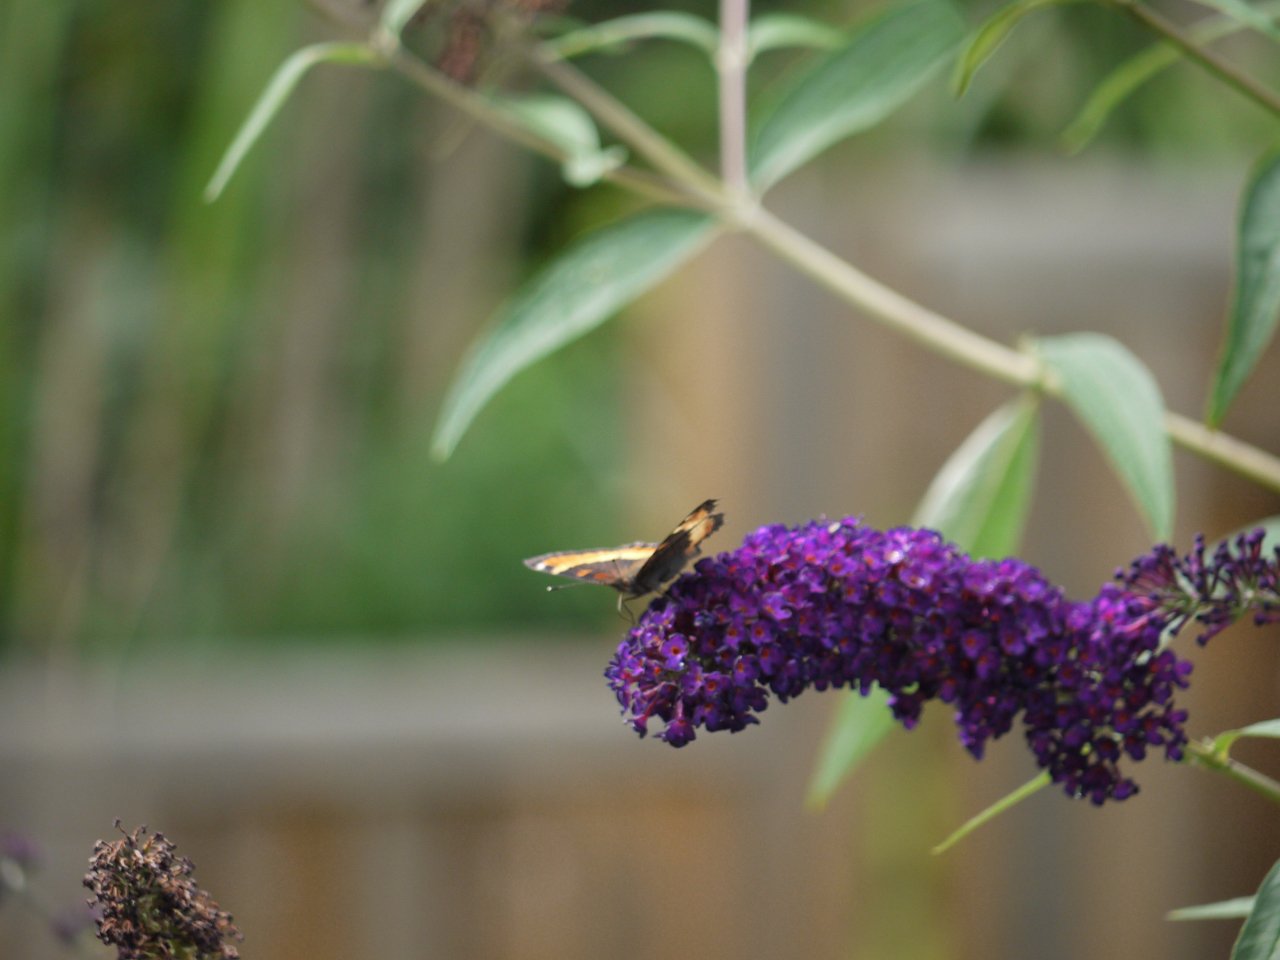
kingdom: Animalia
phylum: Arthropoda
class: Insecta
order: Lepidoptera
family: Nymphalidae
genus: Aglais
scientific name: Aglais milberti
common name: Milbert's Tortoiseshell
